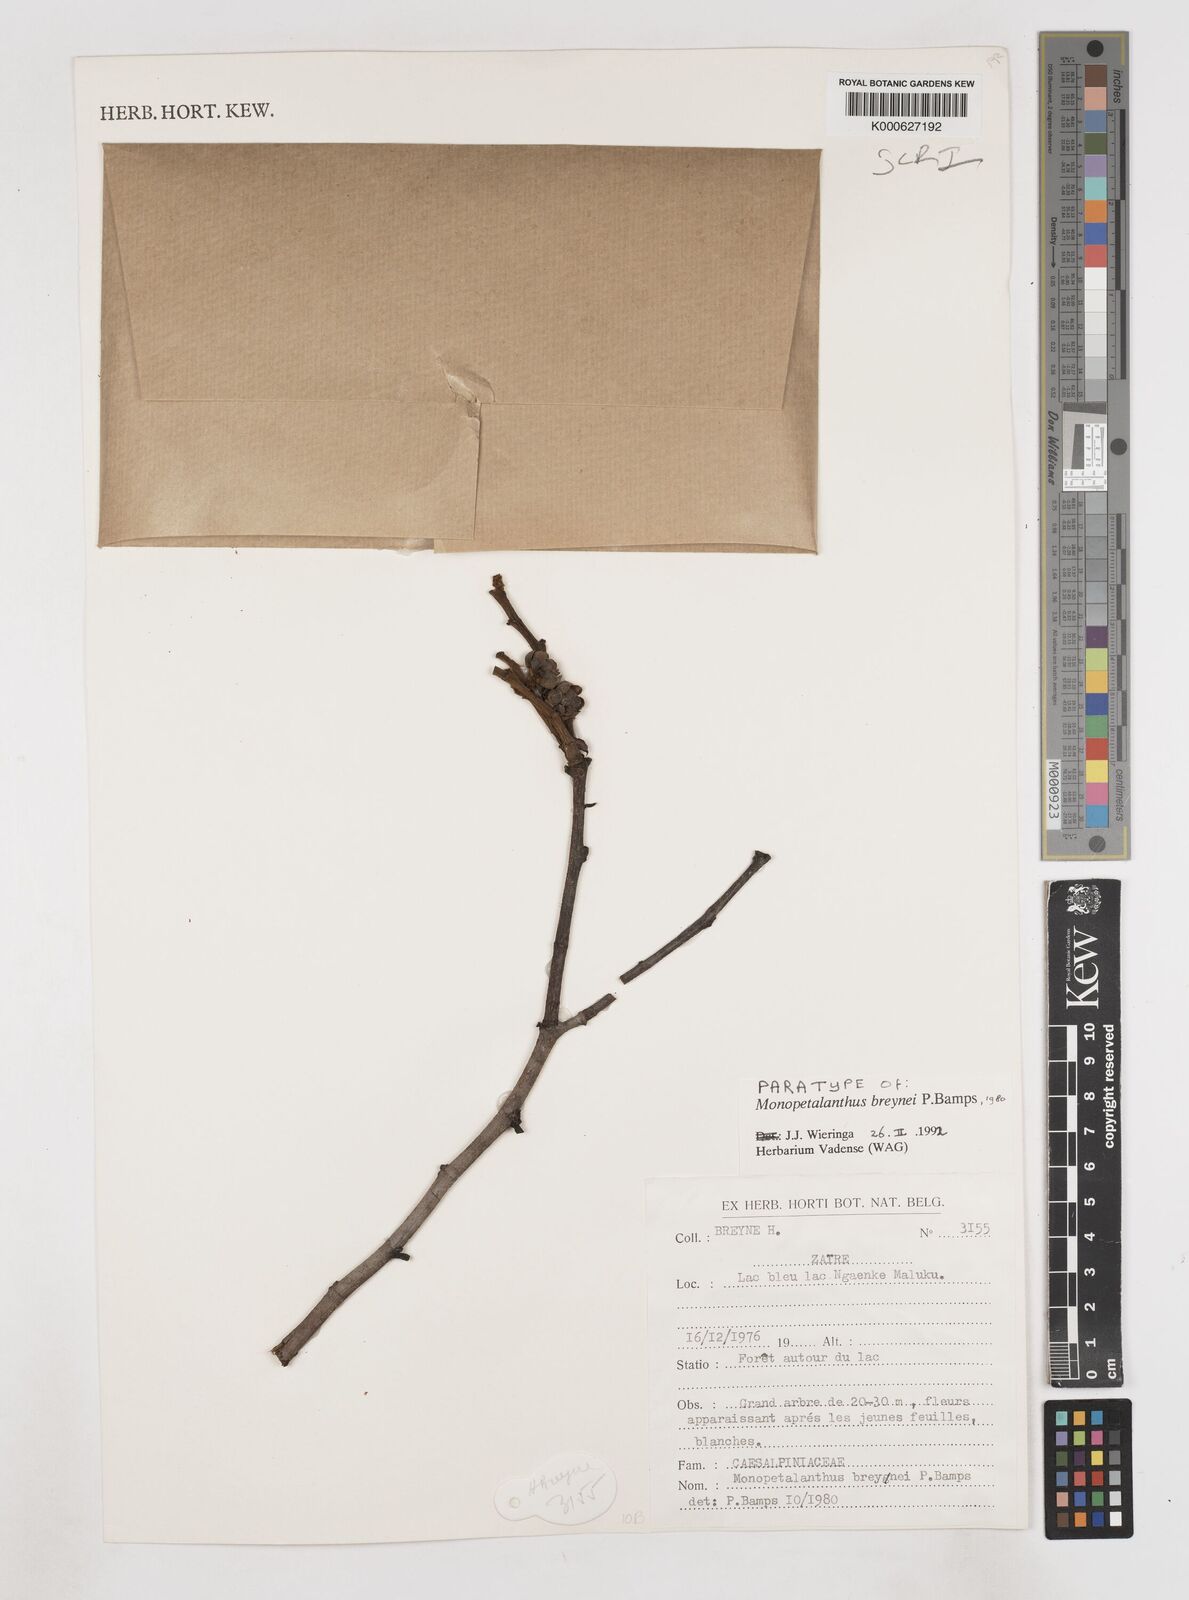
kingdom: Plantae
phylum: Tracheophyta
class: Magnoliopsida
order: Fabales
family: Fabaceae
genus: Bikinia
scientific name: Bikinia breynei
